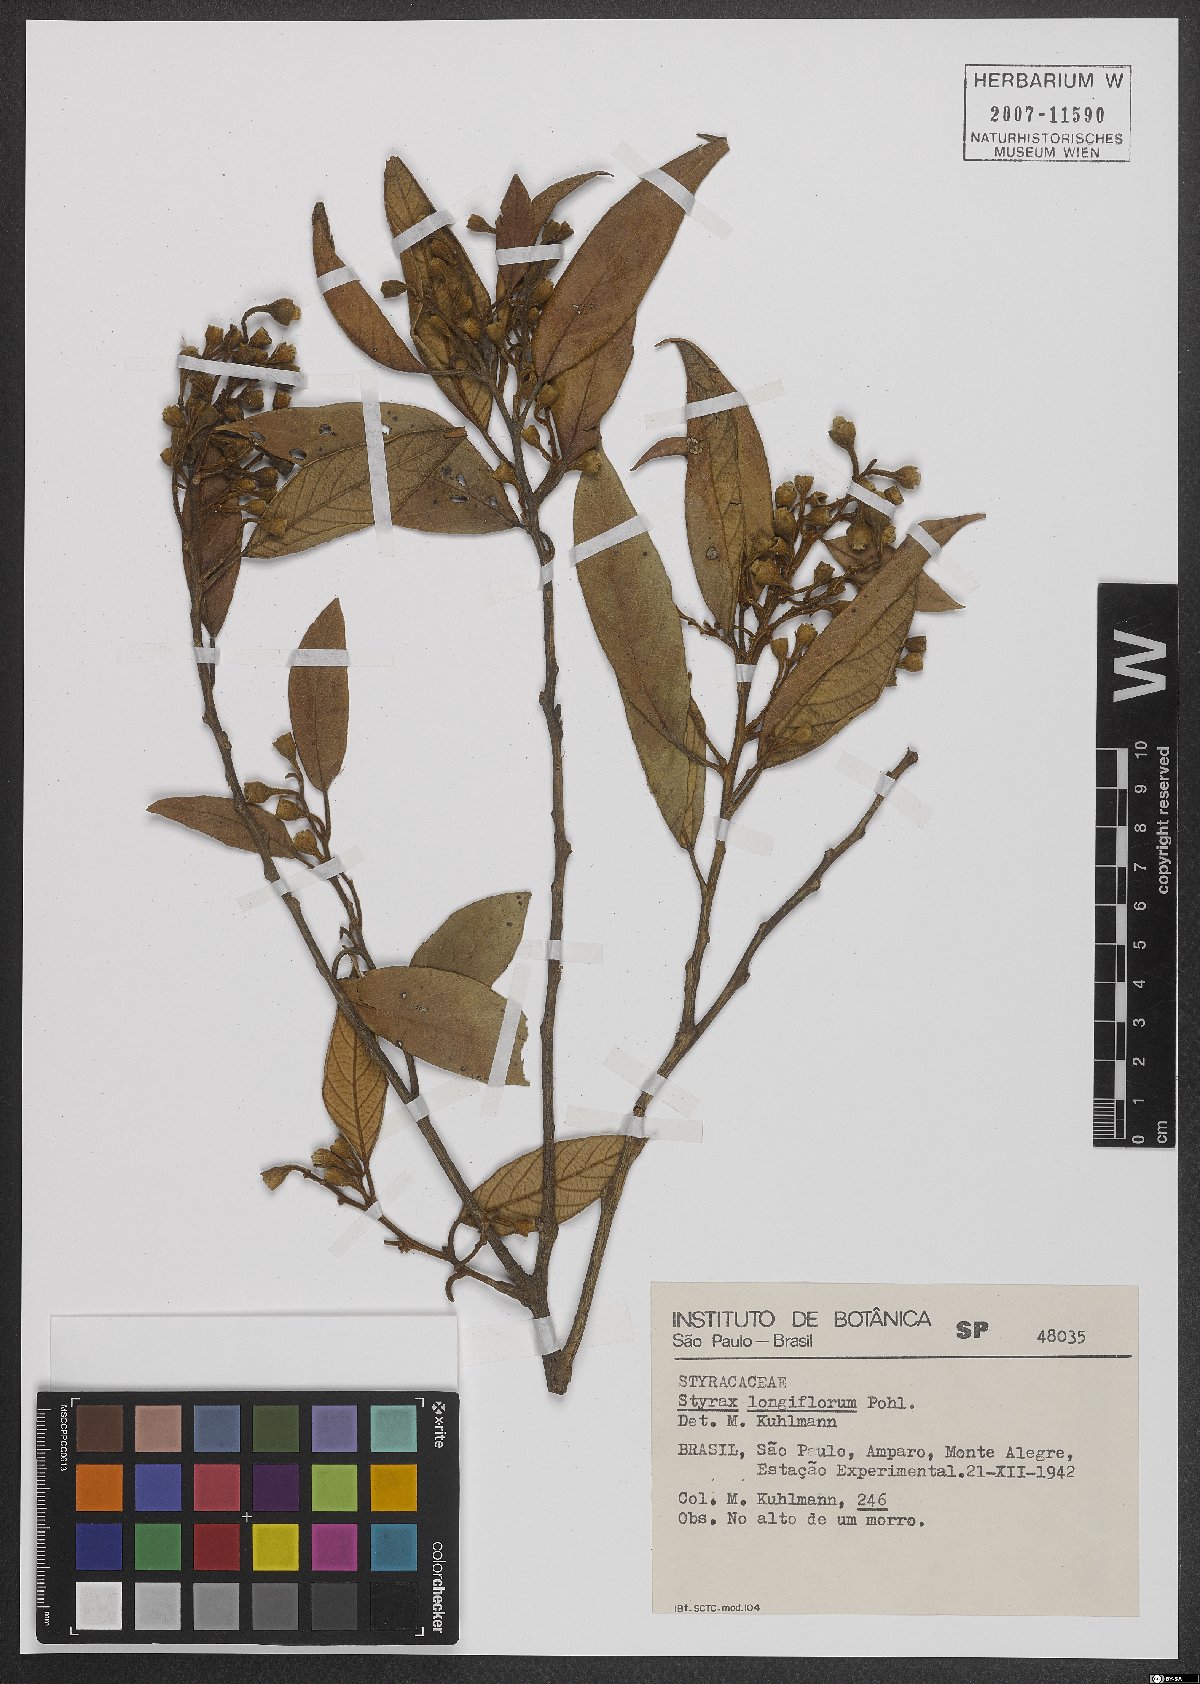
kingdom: Plantae
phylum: Tracheophyta
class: Magnoliopsida
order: Ericales
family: Styracaceae
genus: Styrax
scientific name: Styrax latifolius
